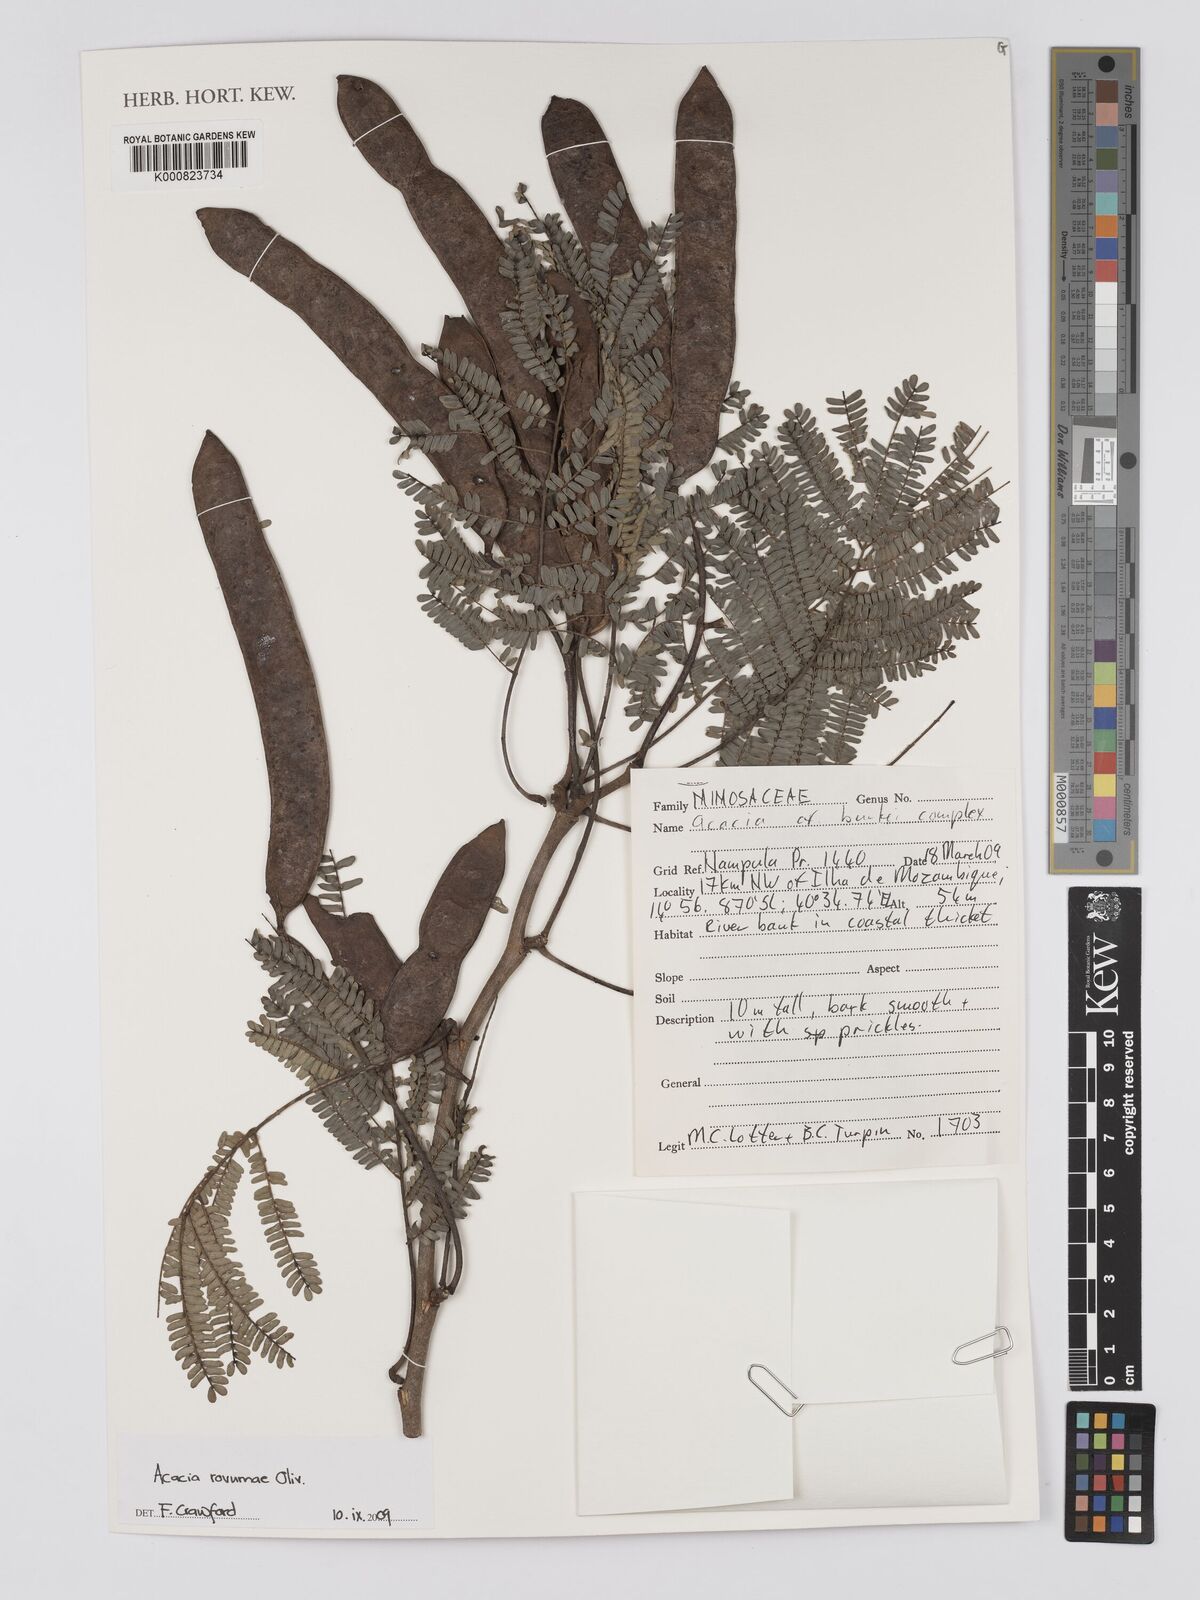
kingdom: Plantae
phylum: Tracheophyta
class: Magnoliopsida
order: Fabales
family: Fabaceae
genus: Senegalia
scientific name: Senegalia rovumae
